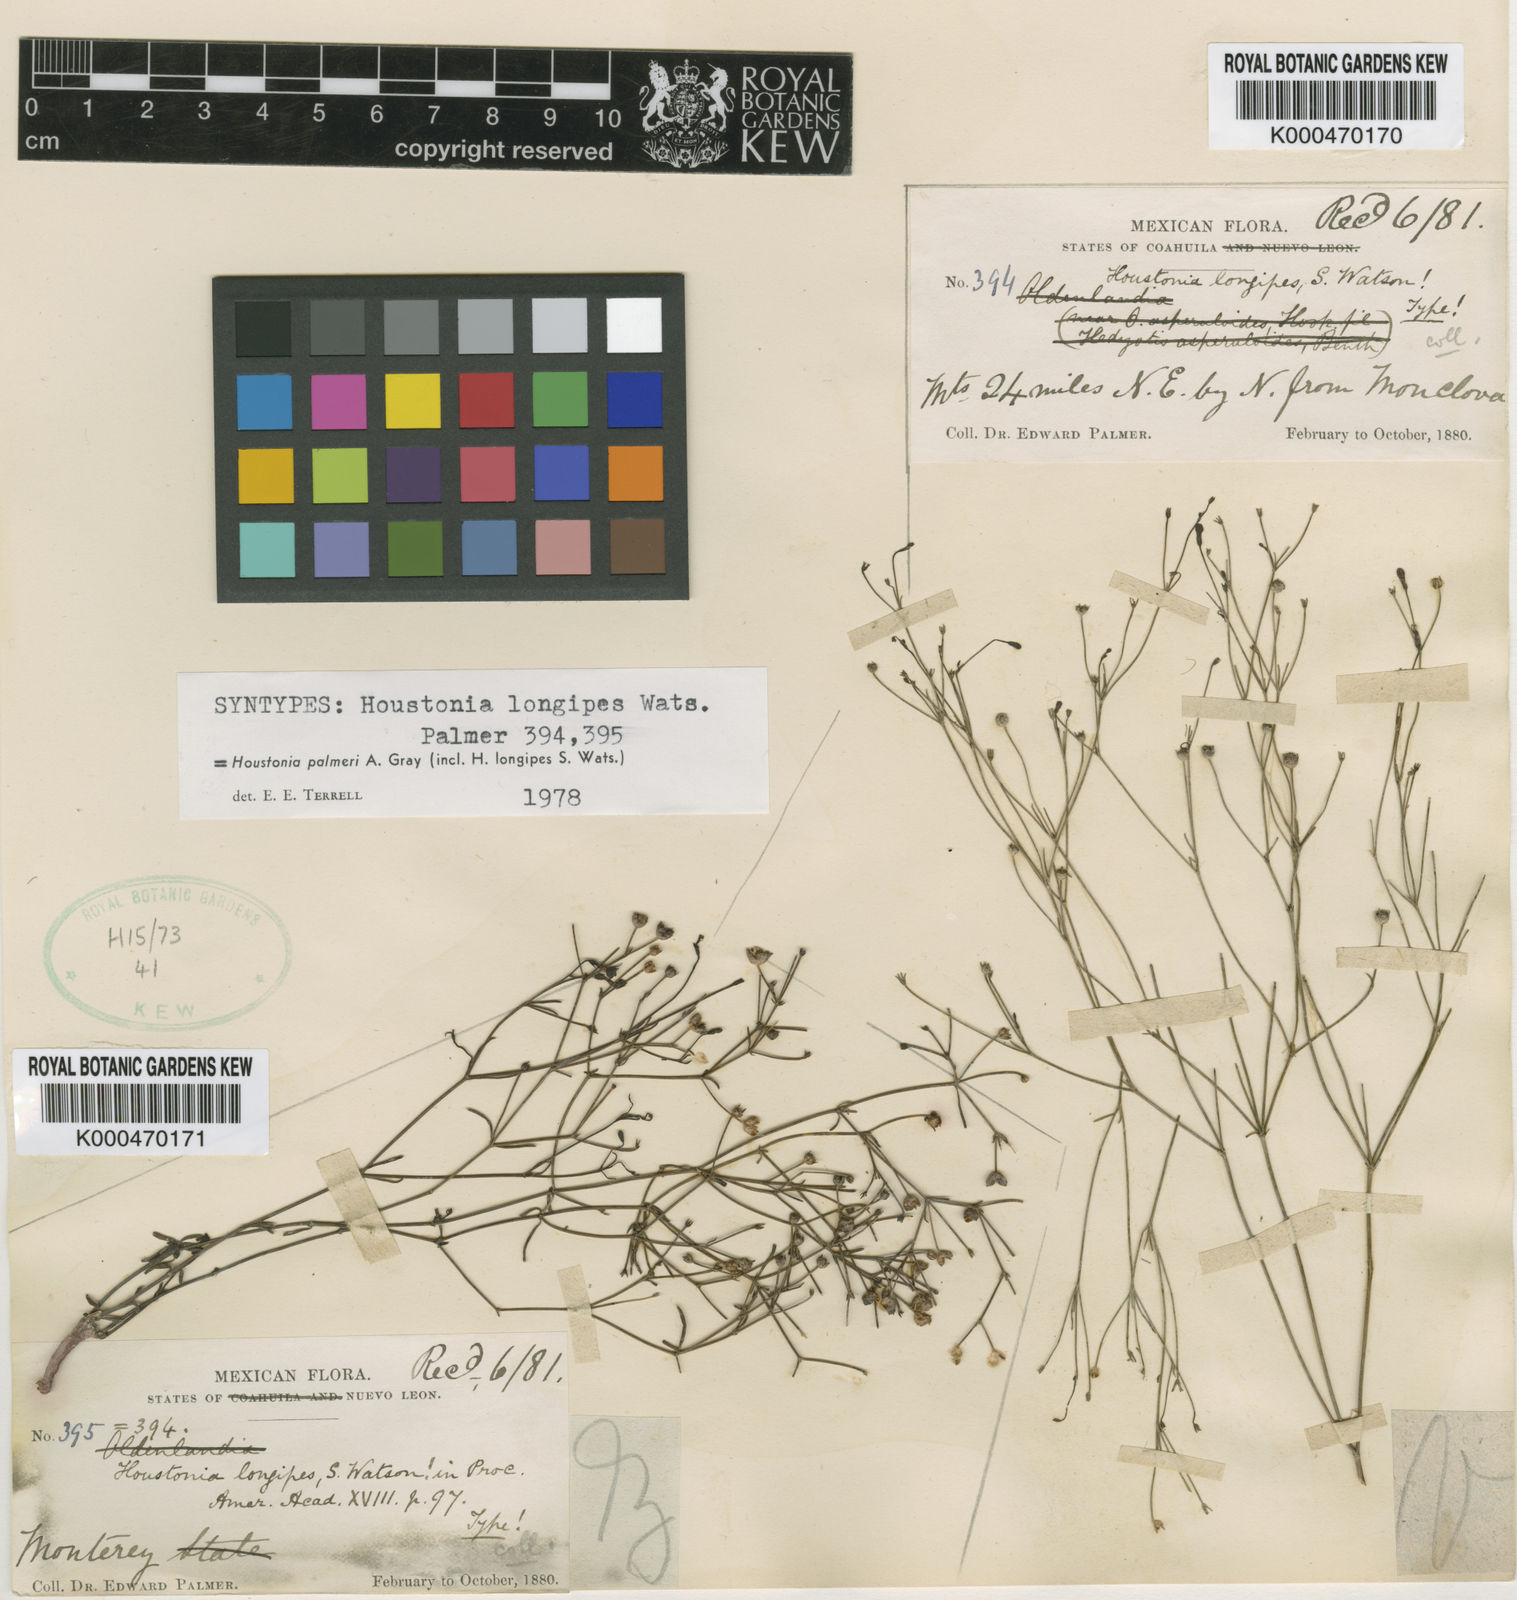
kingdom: Plantae
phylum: Tracheophyta
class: Magnoliopsida
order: Gentianales
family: Rubiaceae
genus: Houstonia
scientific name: Houstonia palmeri
